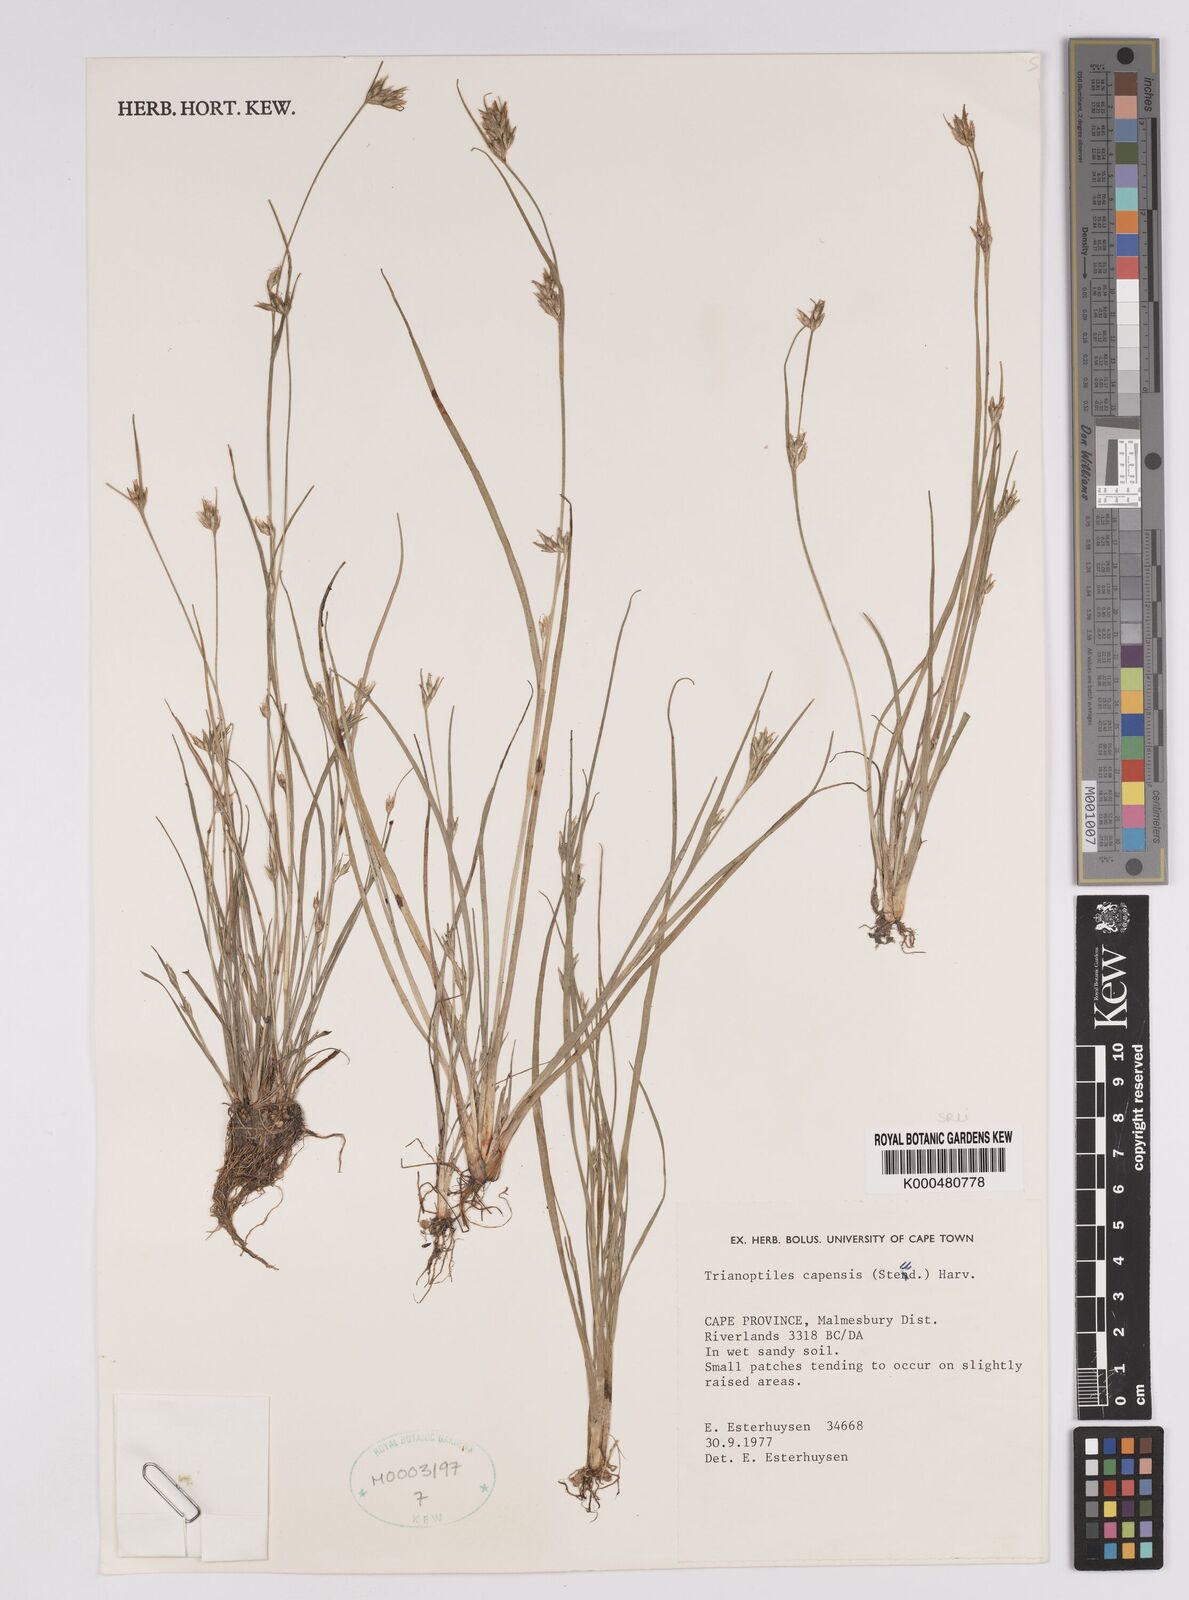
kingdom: Plantae
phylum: Tracheophyta
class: Liliopsida
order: Poales
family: Cyperaceae
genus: Trianoptiles
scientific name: Trianoptiles capensis
